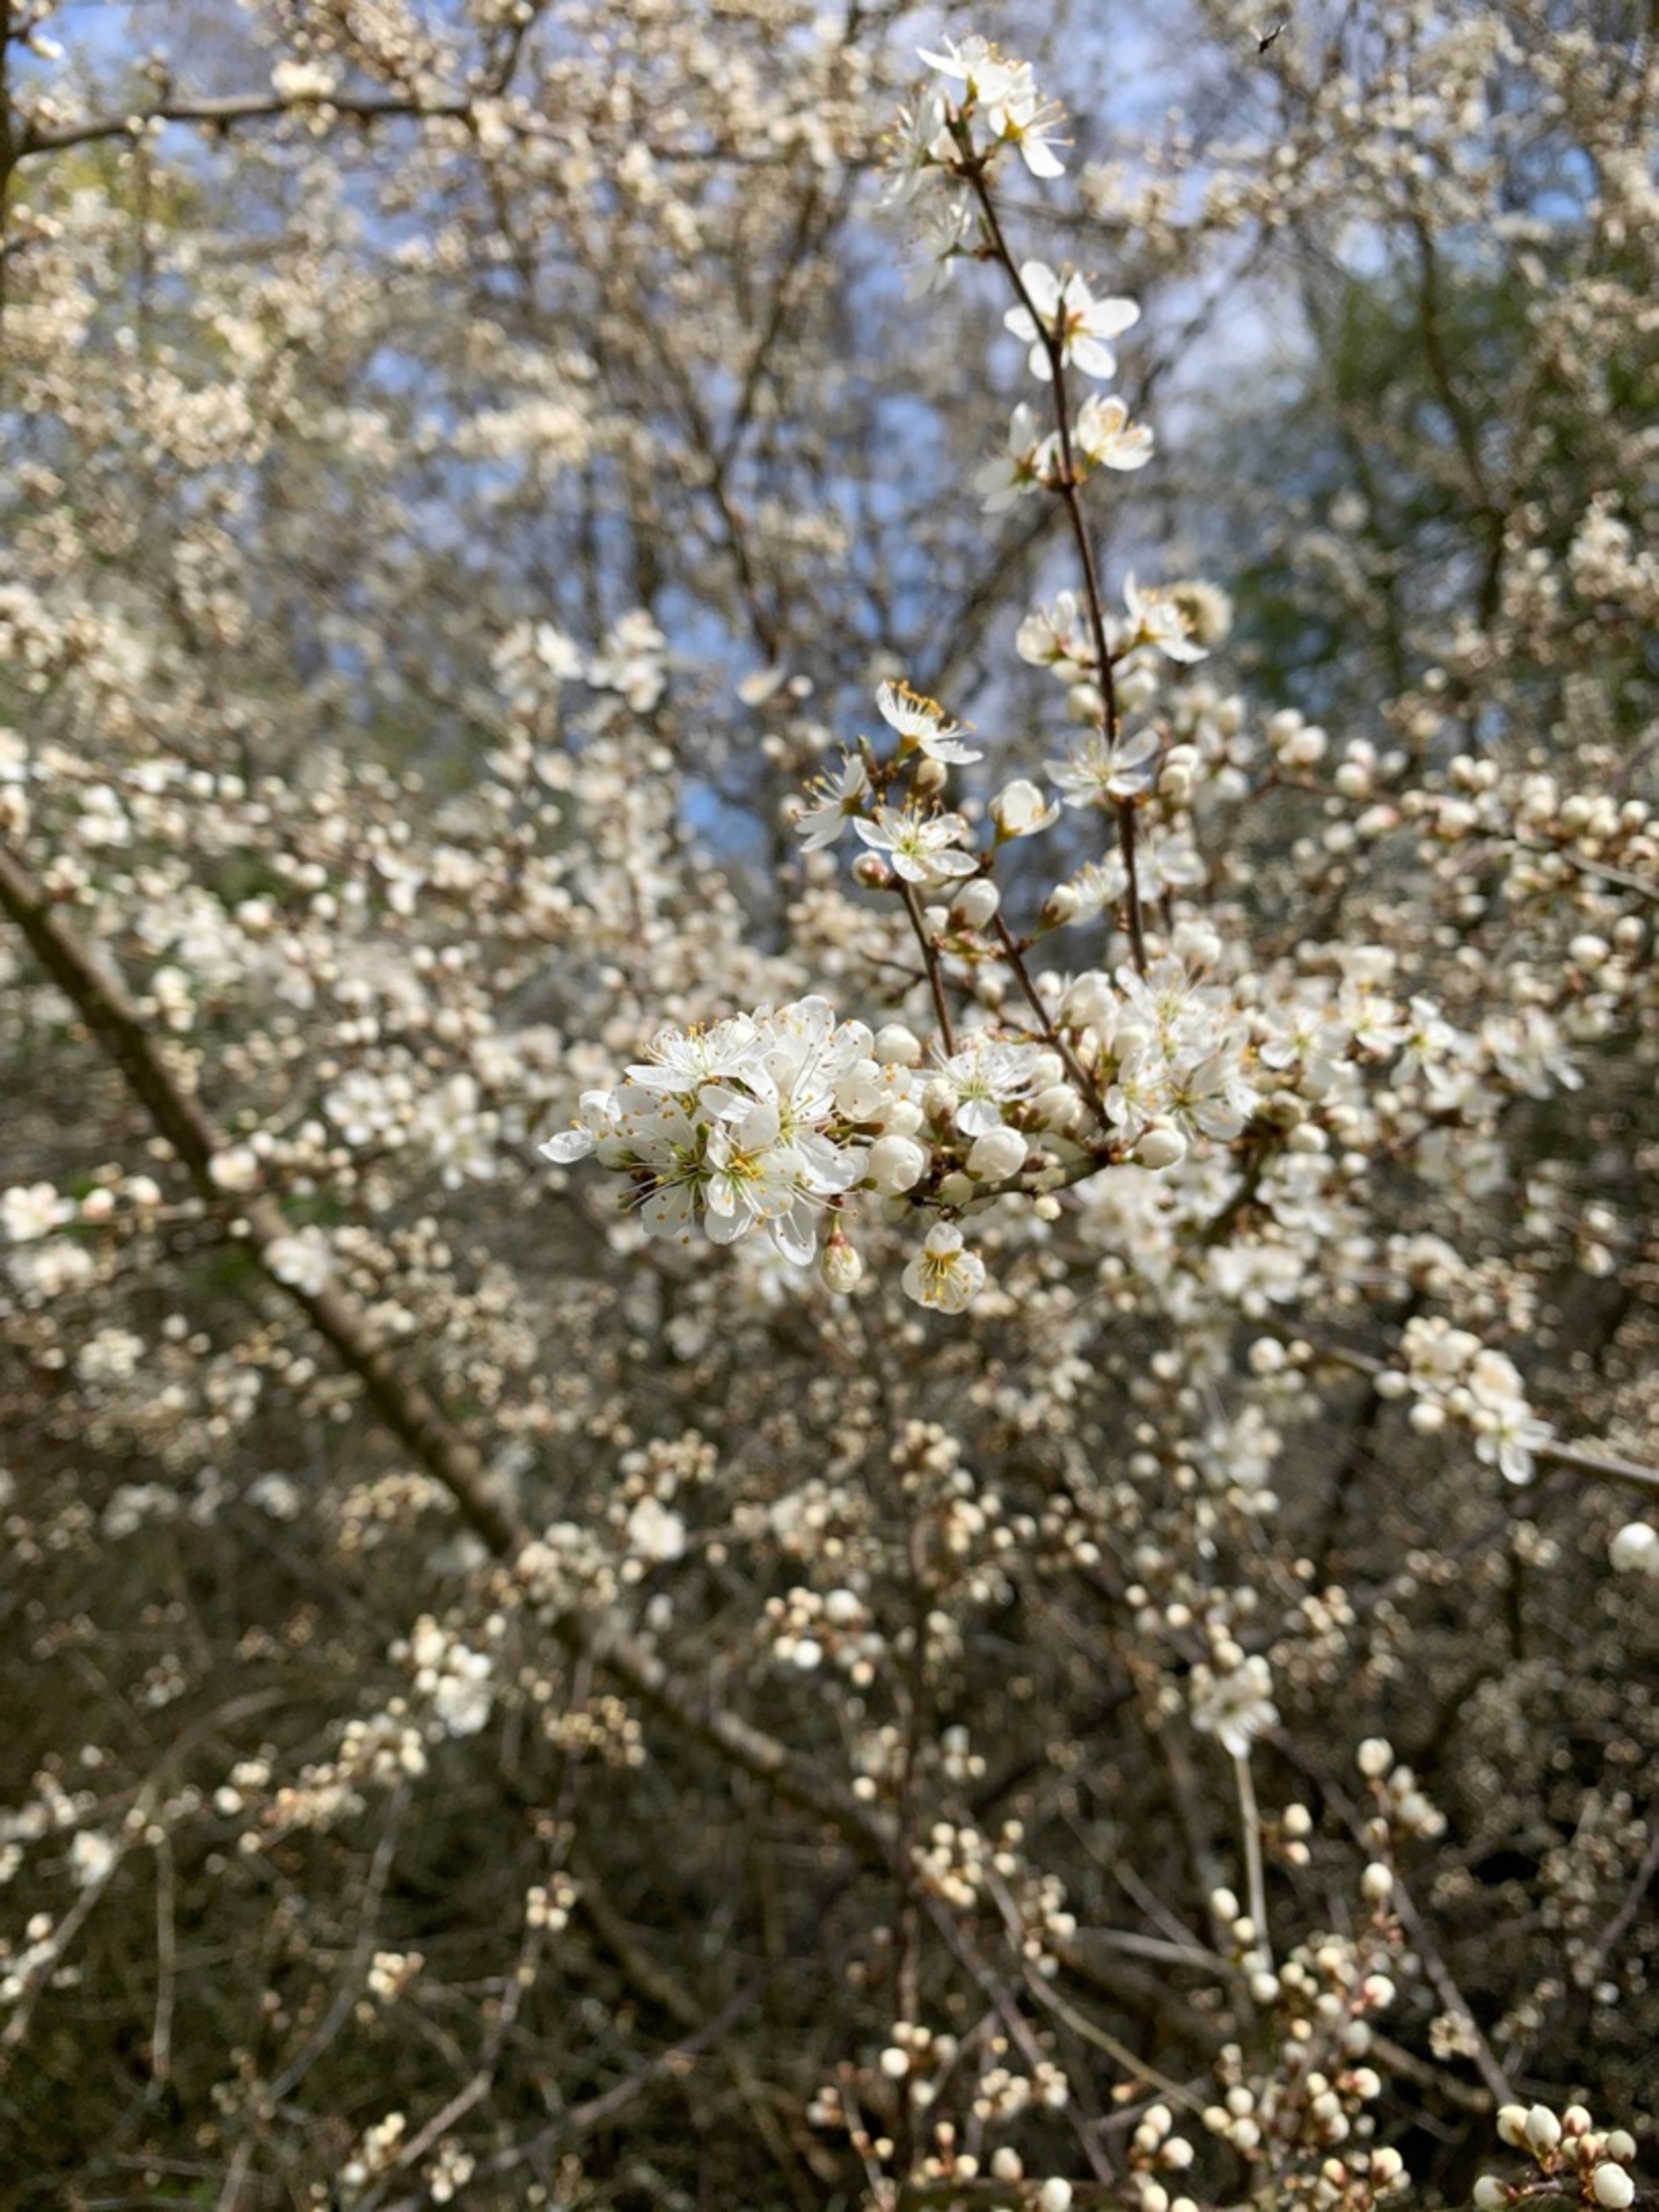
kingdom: Plantae
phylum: Tracheophyta
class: Magnoliopsida
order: Rosales
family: Rosaceae
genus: Prunus
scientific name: Prunus spinosa
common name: Slåen
